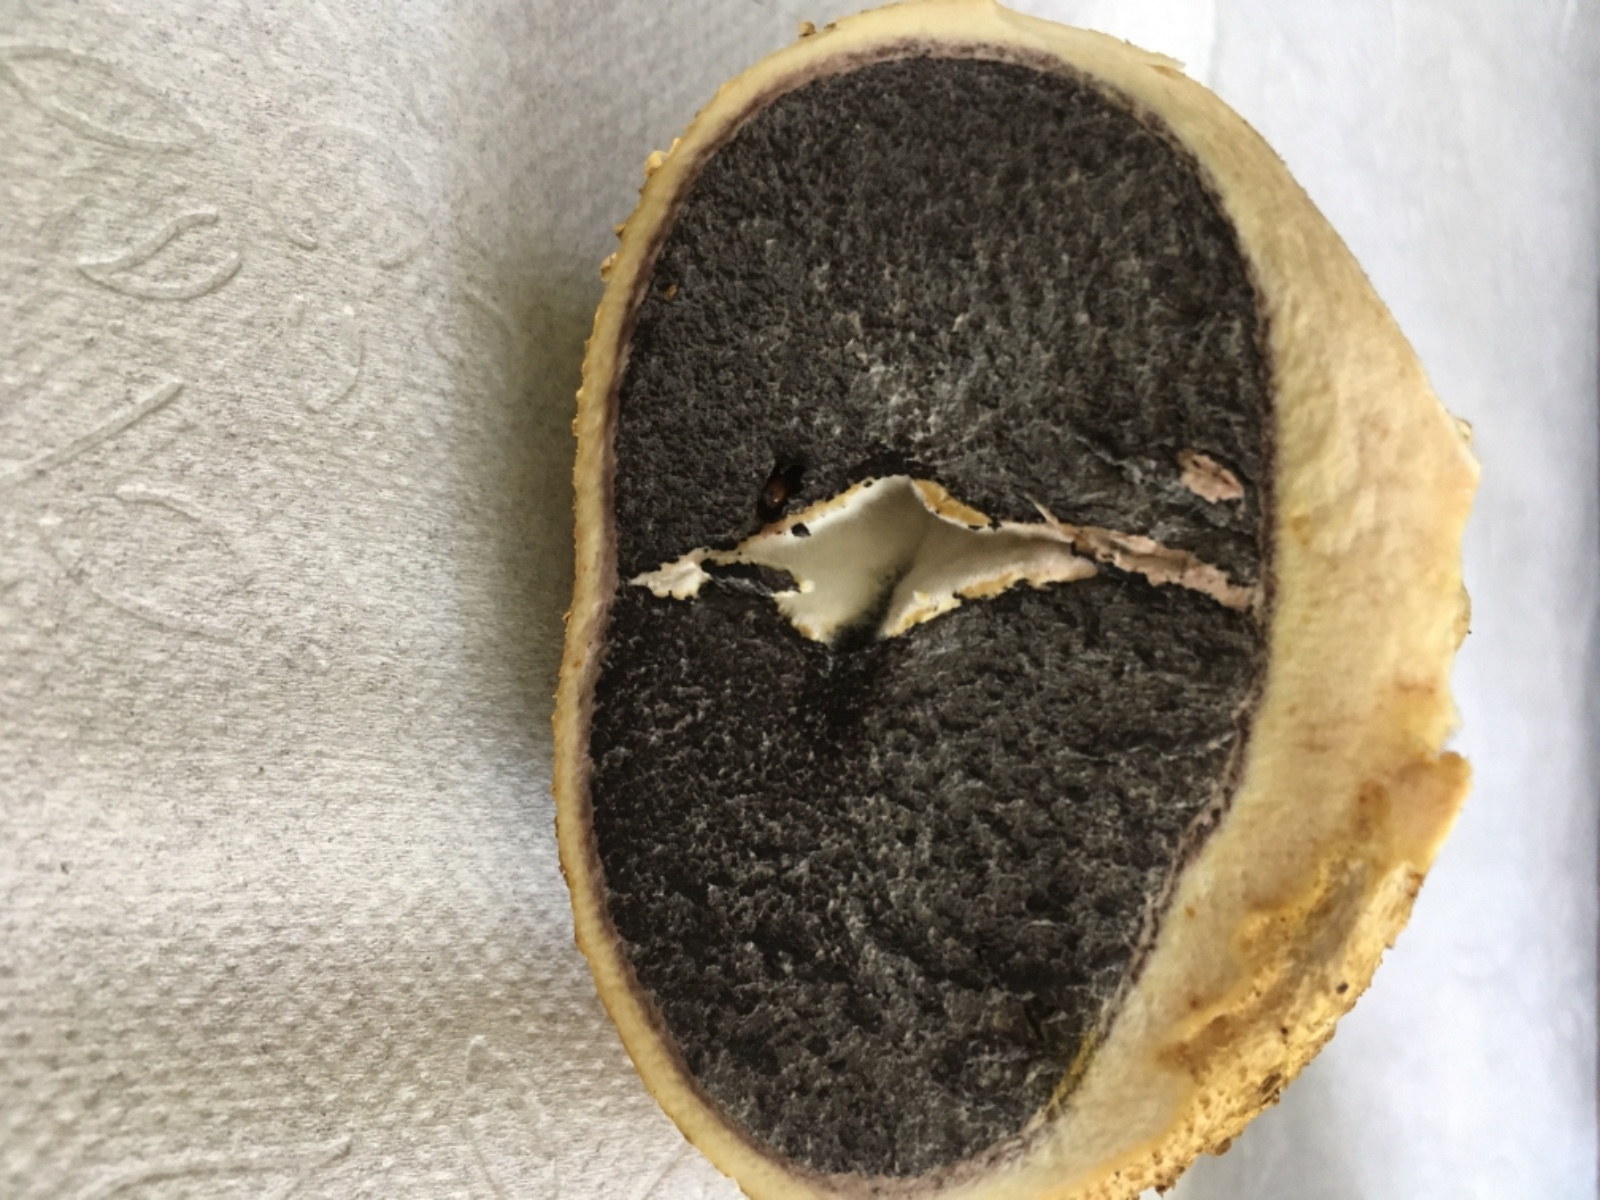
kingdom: Fungi
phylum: Basidiomycota
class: Agaricomycetes
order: Boletales
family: Sclerodermataceae
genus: Scleroderma
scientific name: Scleroderma citrinum
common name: almindelig bruskbold
